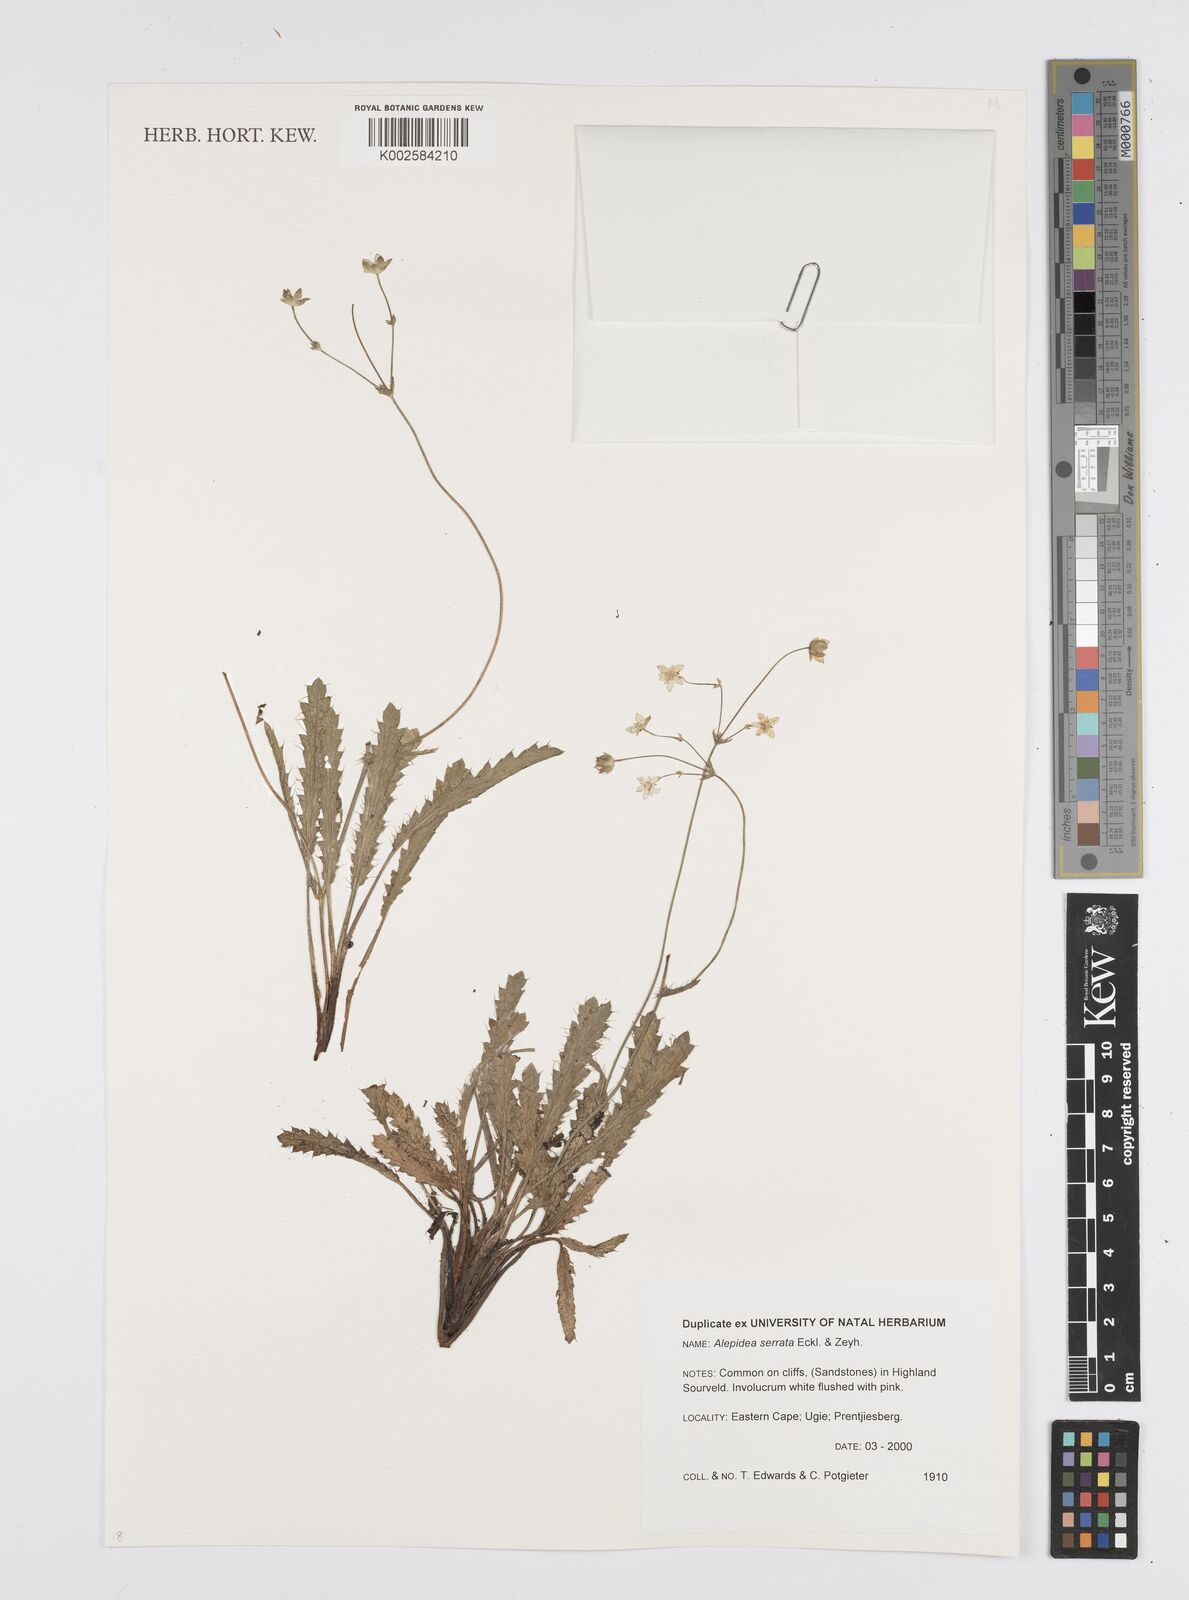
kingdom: Plantae
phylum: Tracheophyta
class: Magnoliopsida
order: Apiales
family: Apiaceae
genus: Alepidea
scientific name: Alepidea serrata
